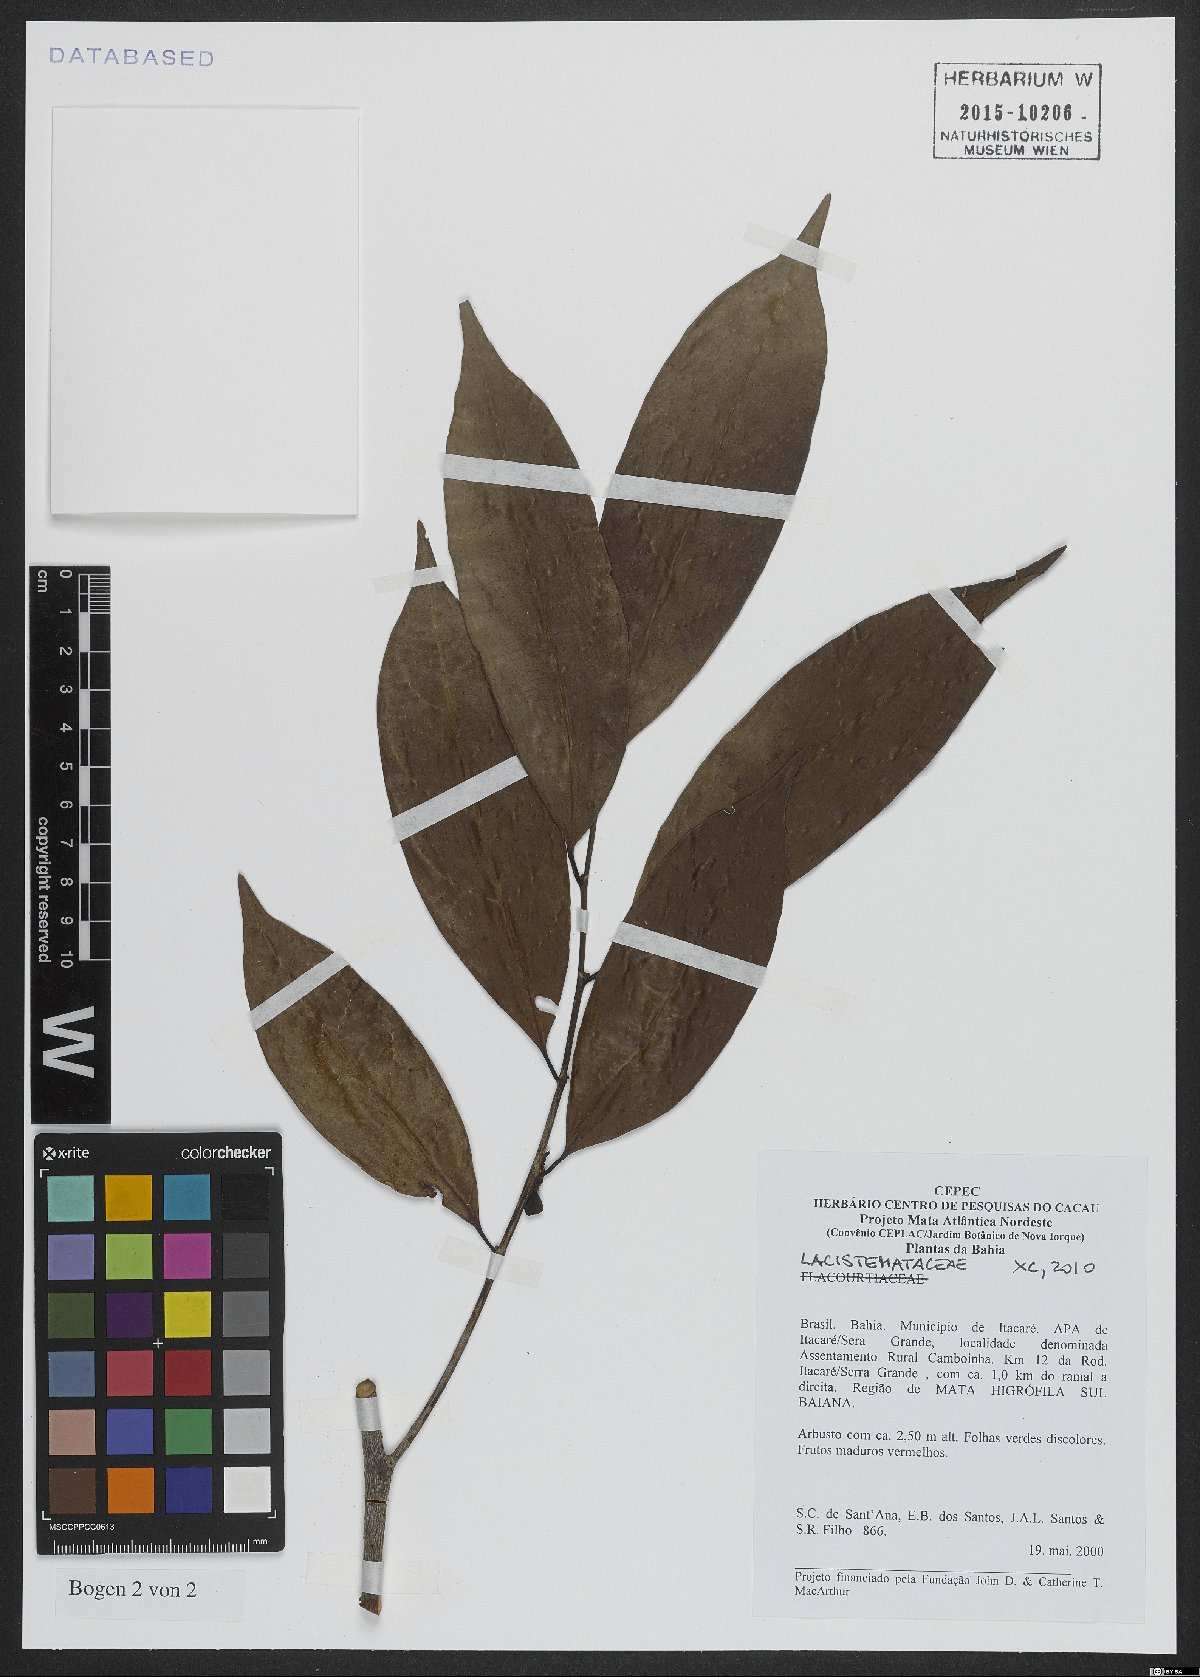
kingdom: Plantae
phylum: Tracheophyta
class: Magnoliopsida
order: Malpighiales
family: Lacistemataceae
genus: Lacistema
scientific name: Lacistema robustum
